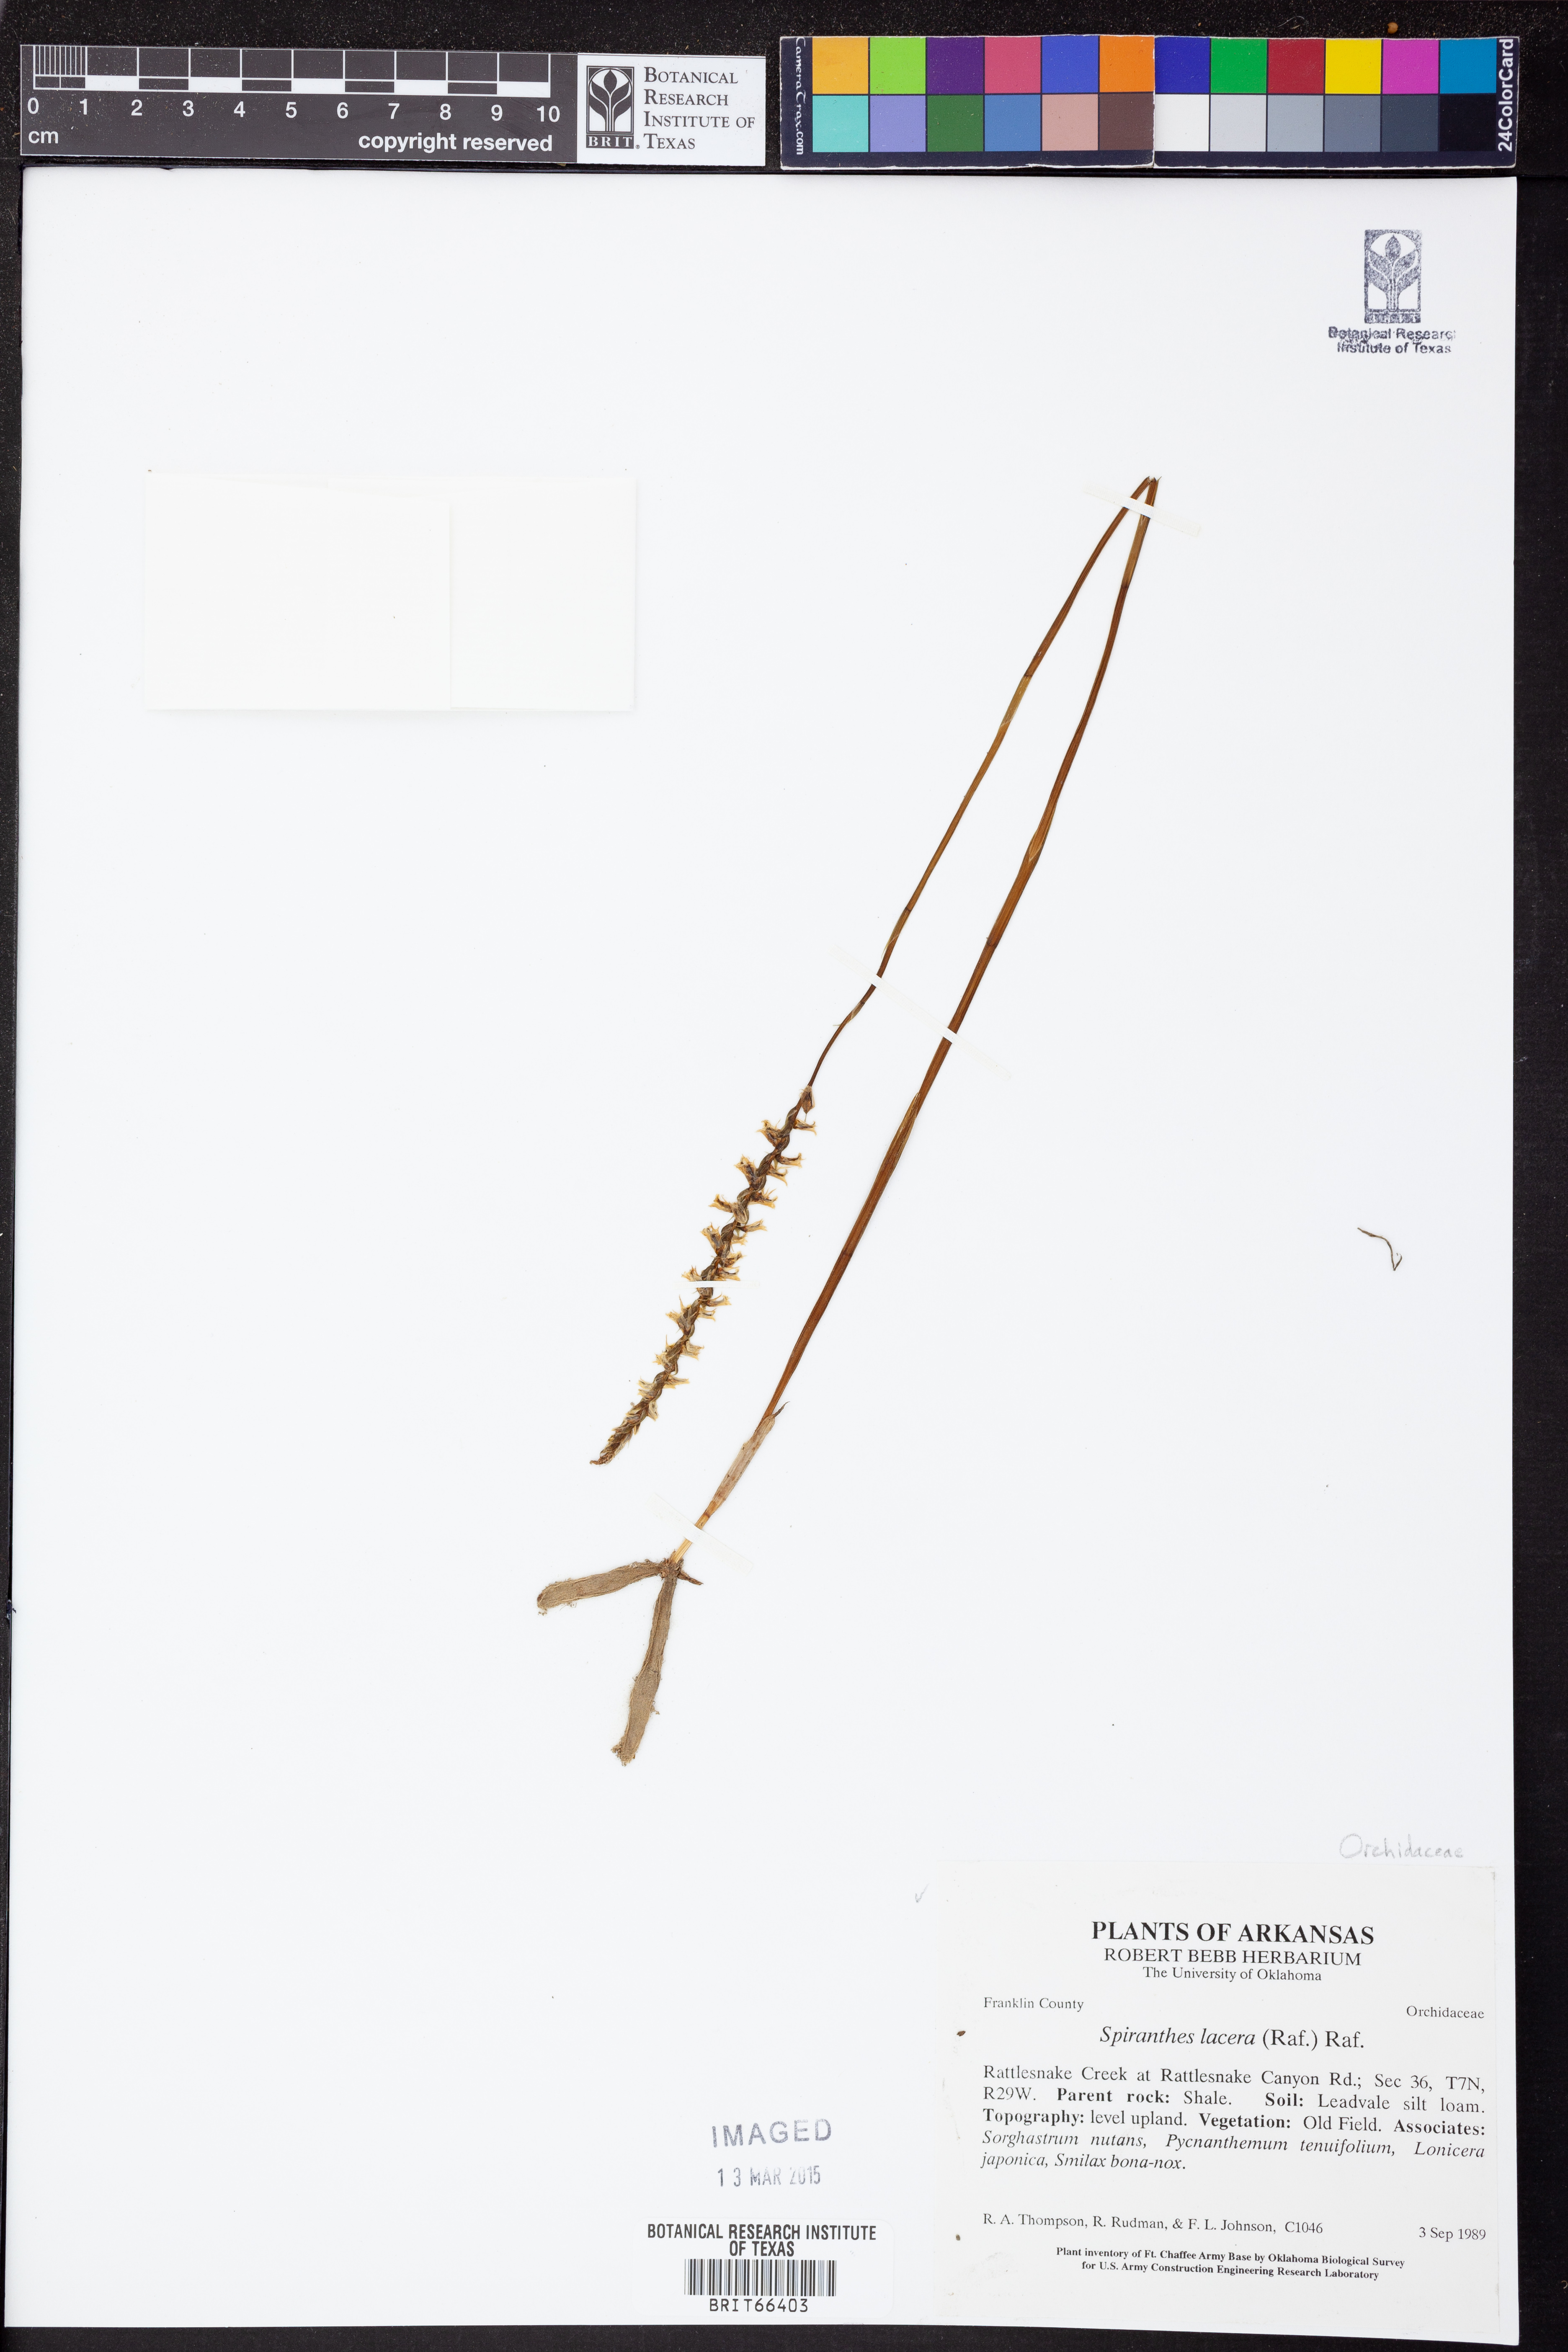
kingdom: Plantae
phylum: Tracheophyta
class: Liliopsida
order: Asparagales
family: Orchidaceae
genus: Spiranthes
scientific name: Spiranthes lacera
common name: Northern slender ladies'-tresses
